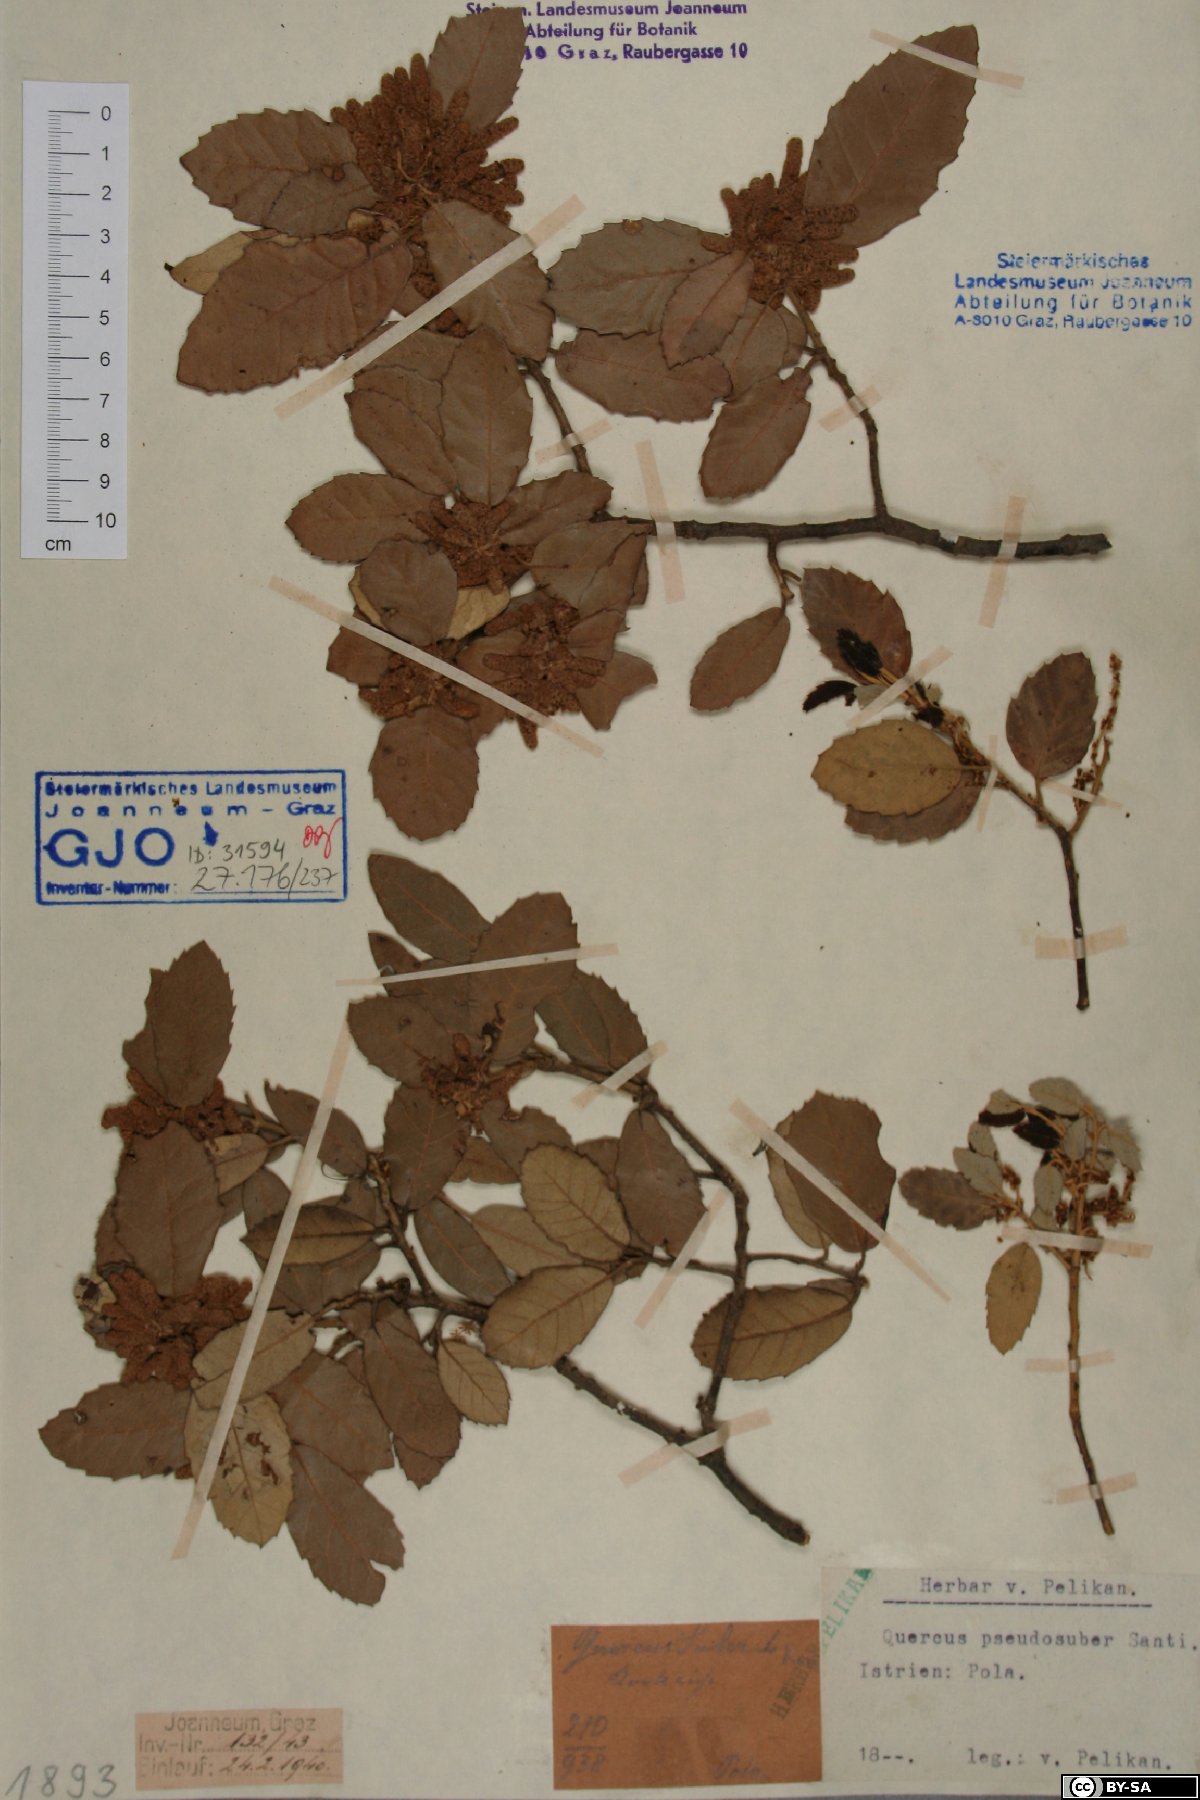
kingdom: Plantae
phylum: Tracheophyta
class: Magnoliopsida
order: Fagales
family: Fagaceae
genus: Quercus
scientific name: Quercus crenata
